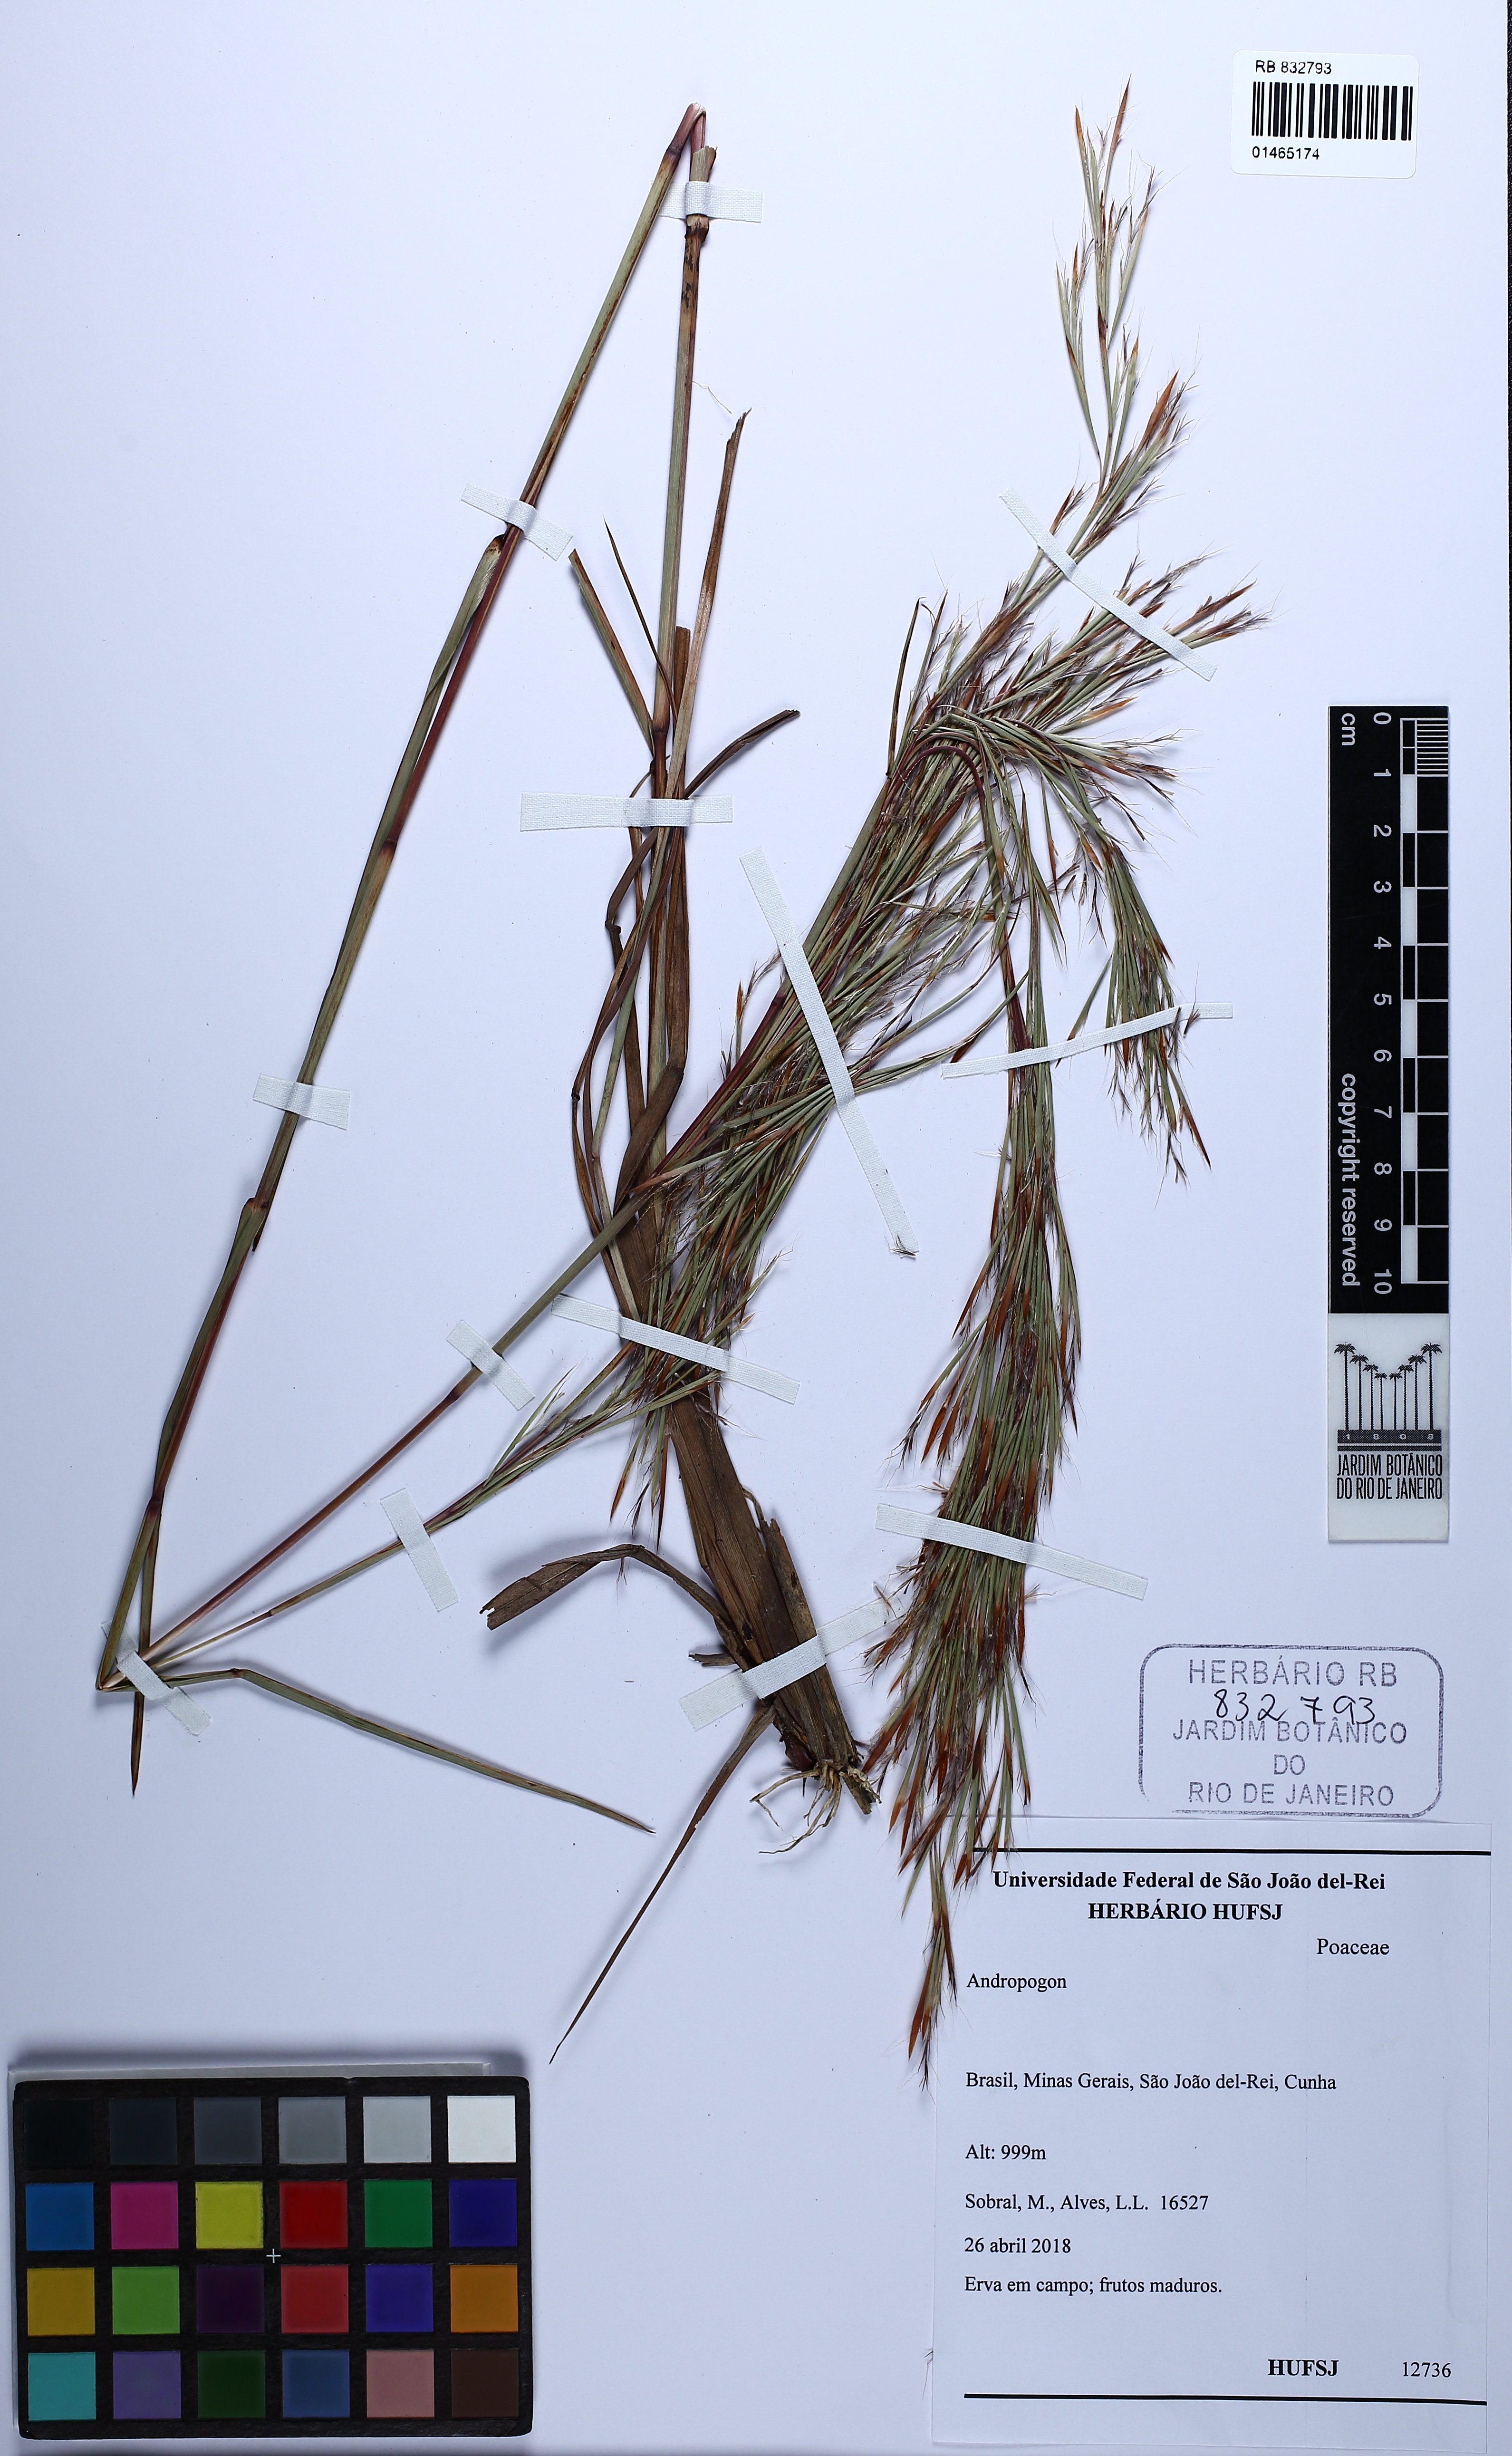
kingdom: Plantae
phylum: Tracheophyta
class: Liliopsida
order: Poales
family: Poaceae
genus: Andropogon
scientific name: Andropogon
